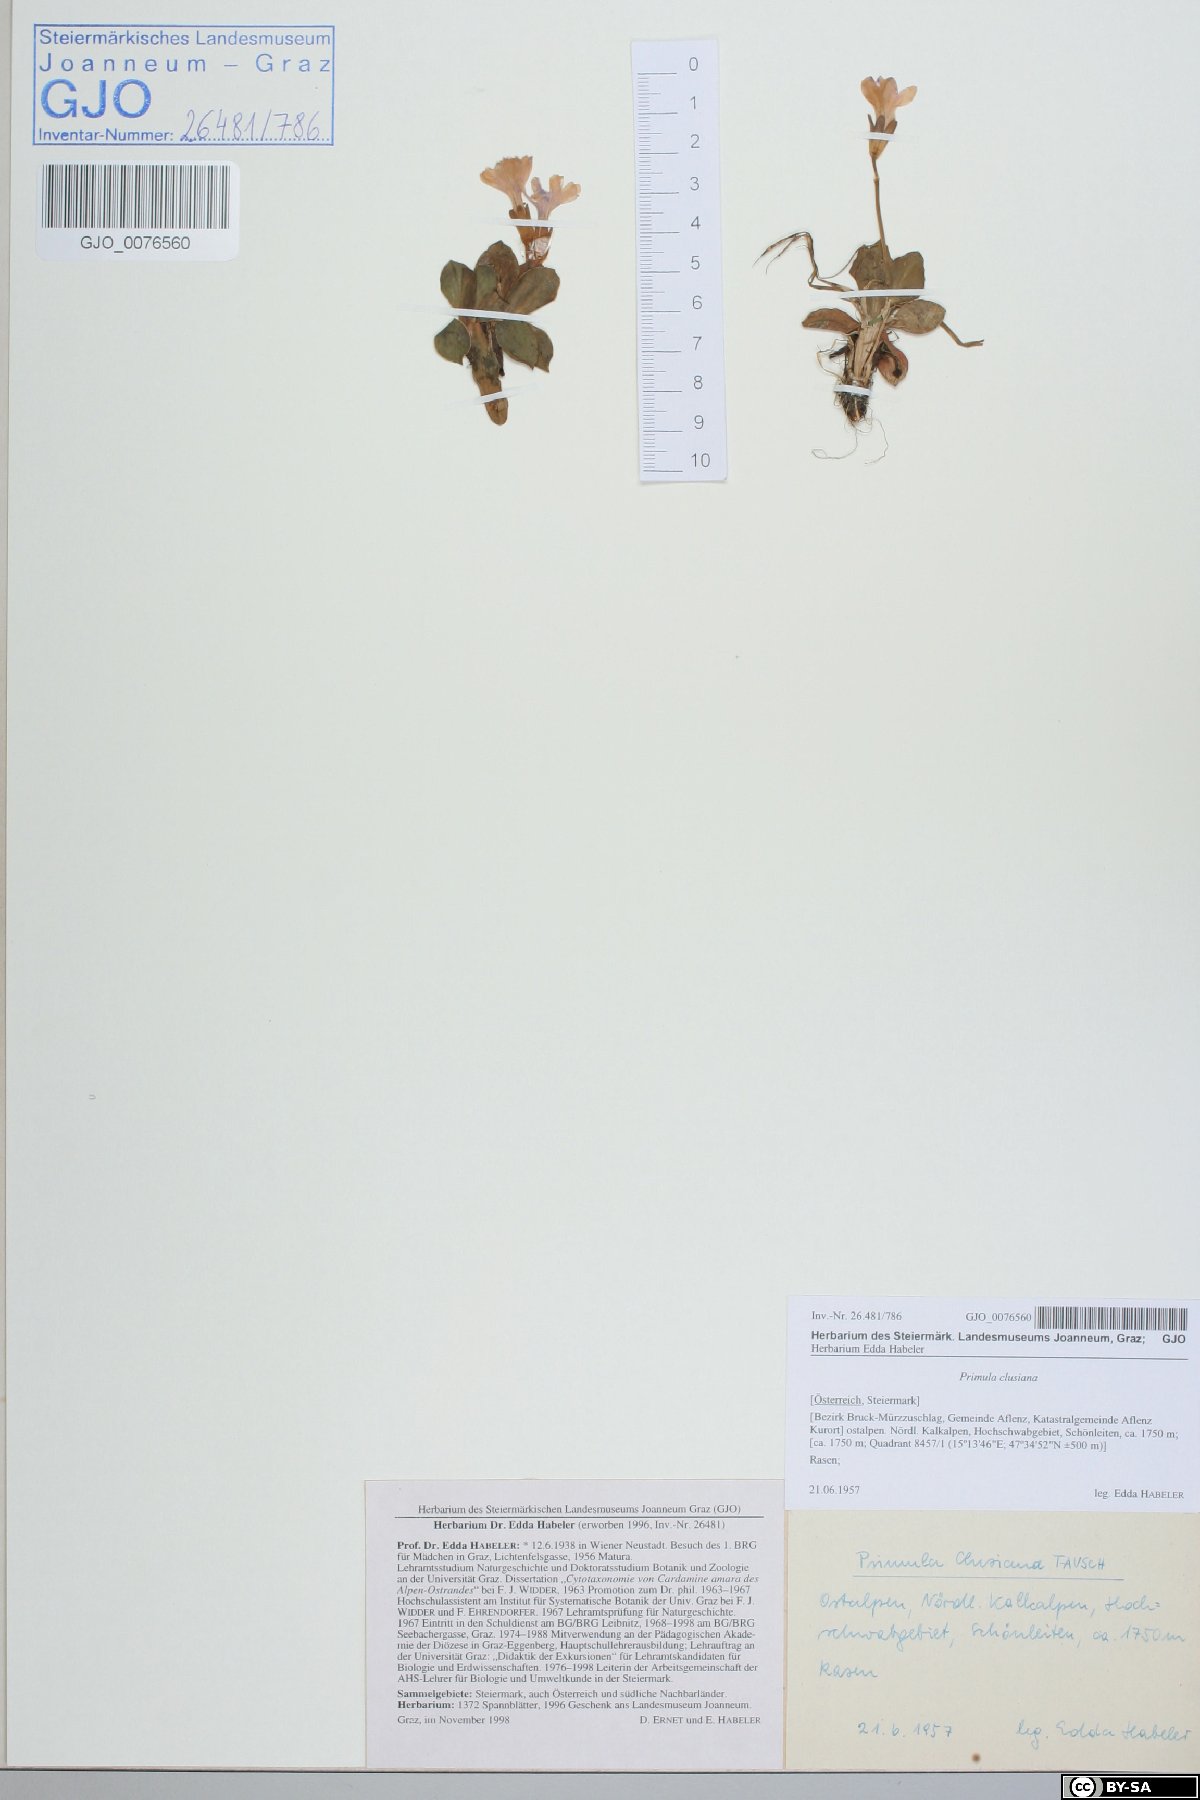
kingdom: Plantae
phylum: Tracheophyta
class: Magnoliopsida
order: Ericales
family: Primulaceae
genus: Primula
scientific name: Primula clusiana
